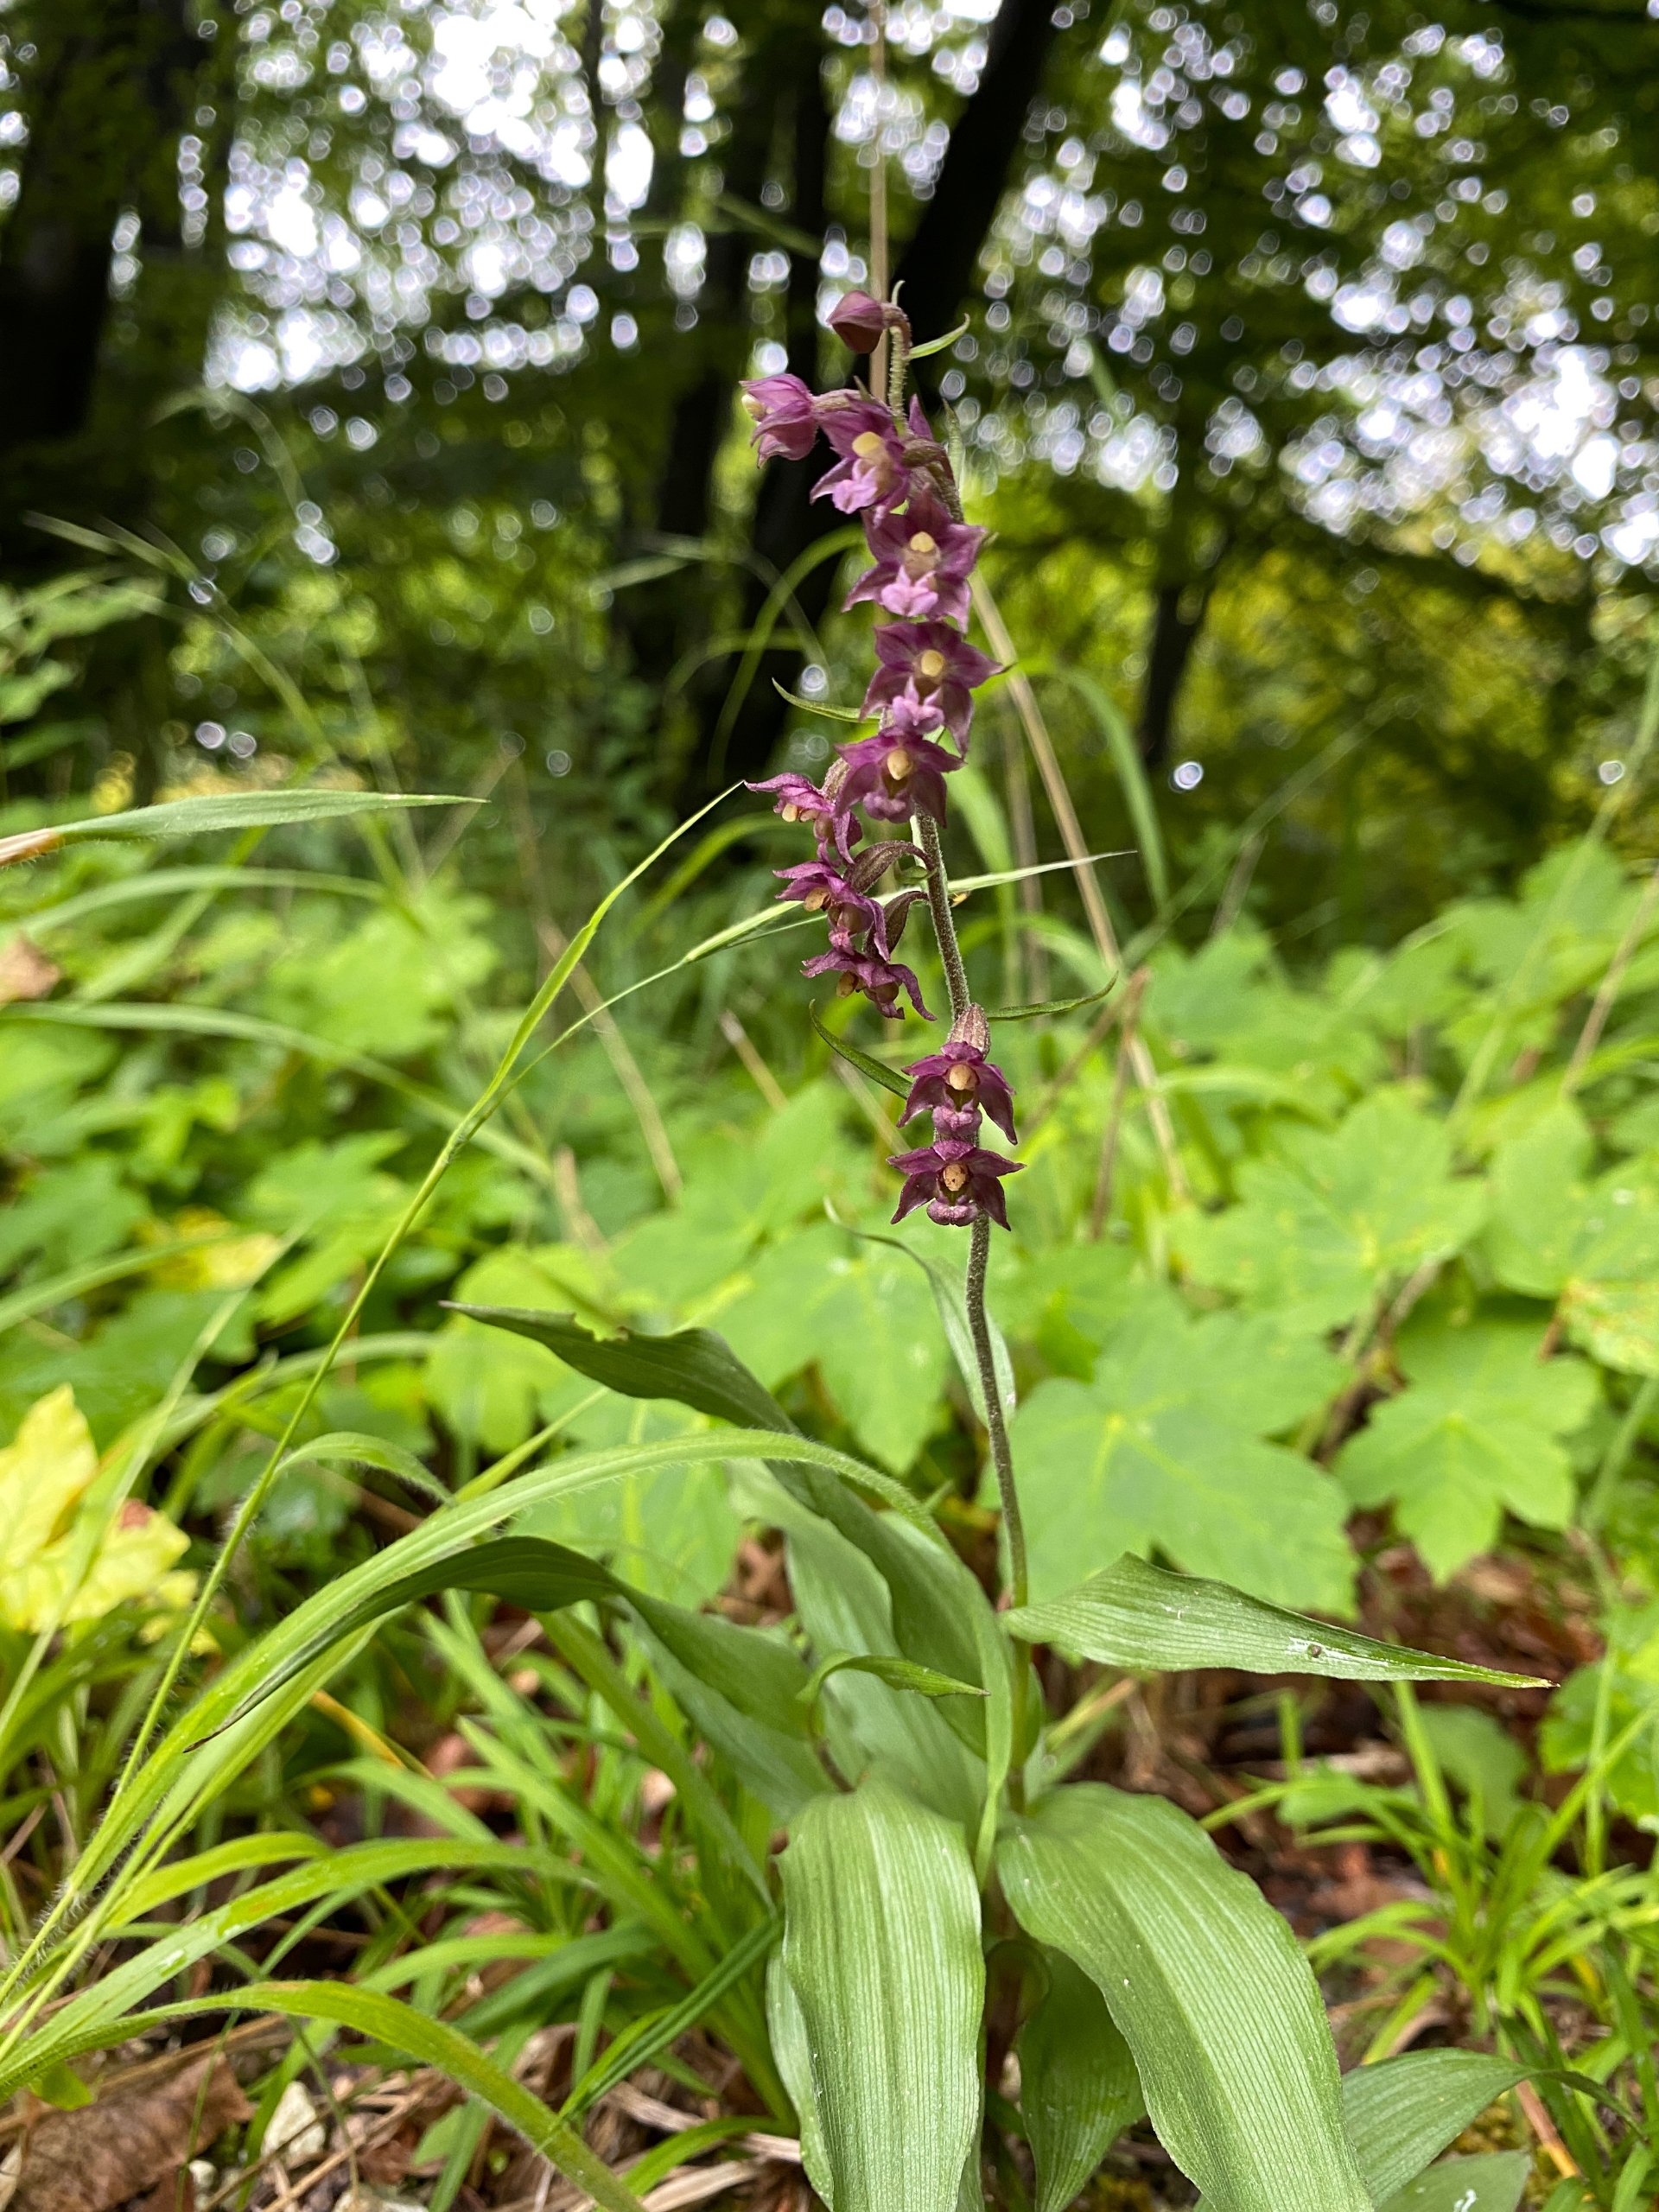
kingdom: Plantae
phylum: Tracheophyta
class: Liliopsida
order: Asparagales
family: Orchidaceae
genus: Epipactis
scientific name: Epipactis atrorubens
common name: Rød hullæbe
